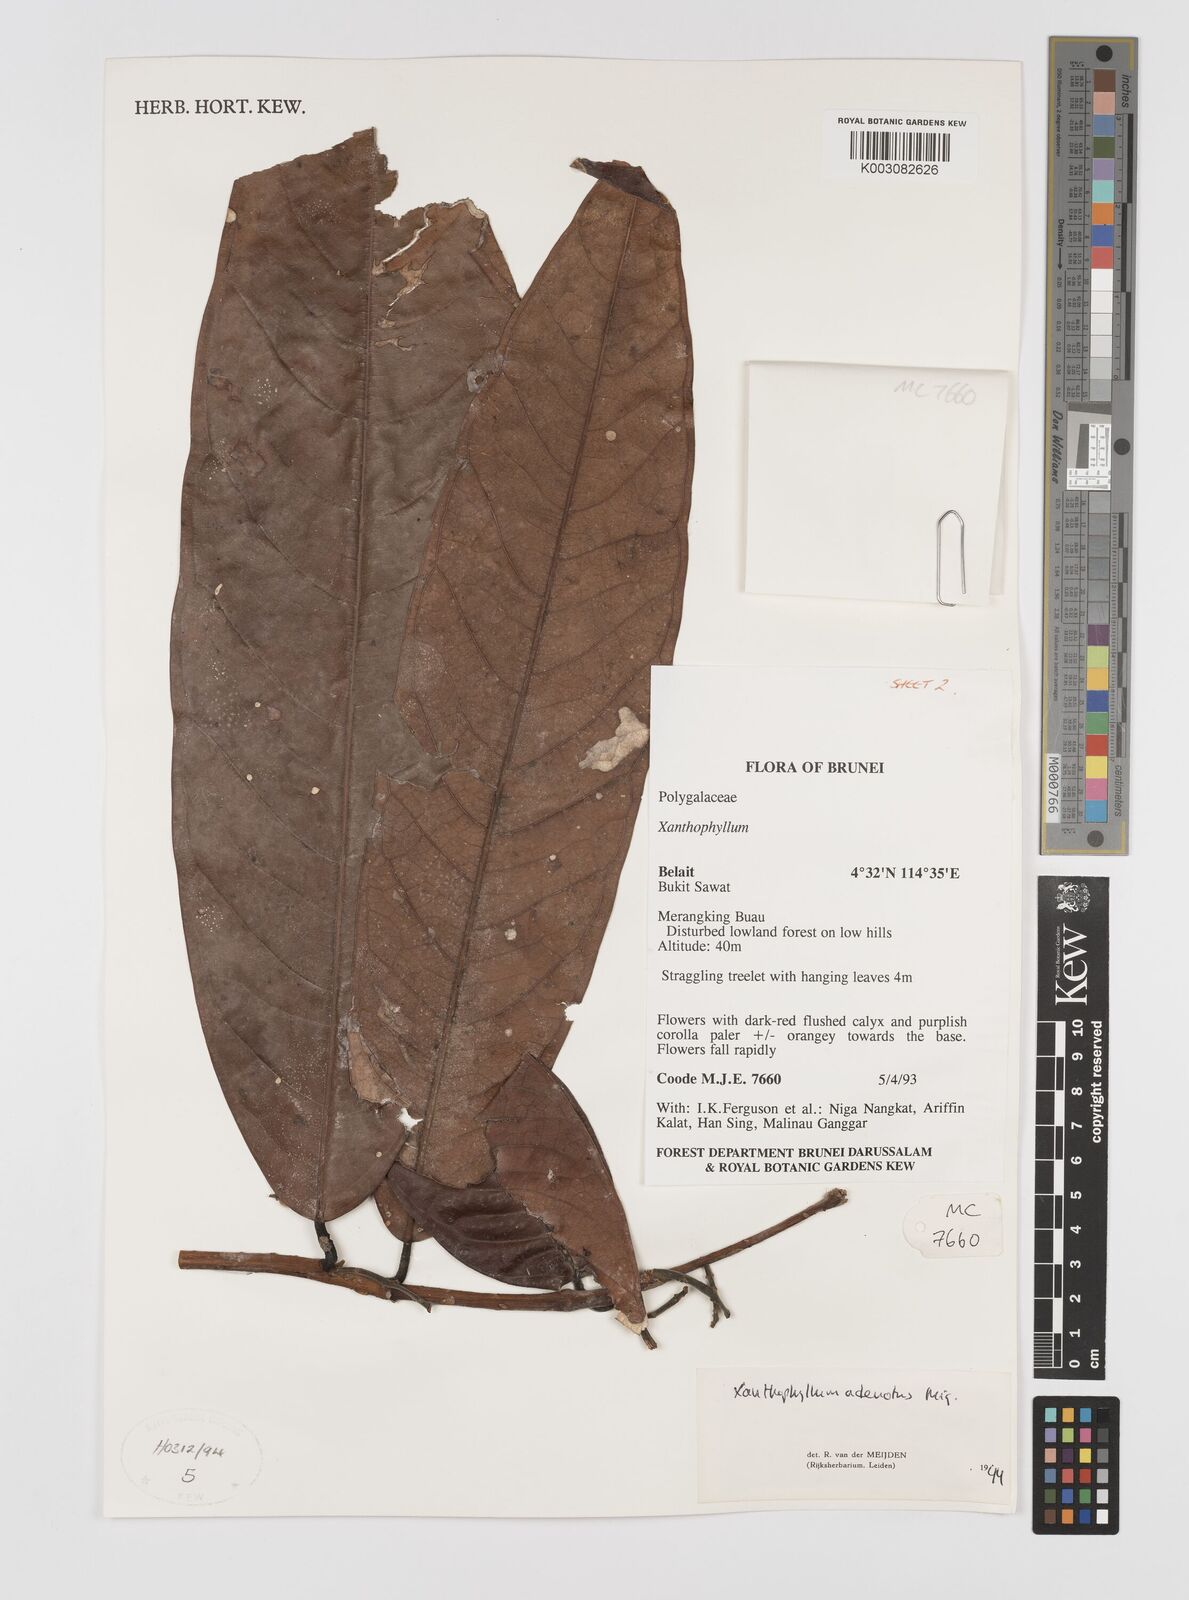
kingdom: Plantae
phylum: Tracheophyta
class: Magnoliopsida
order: Fabales
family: Polygalaceae
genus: Xanthophyllum
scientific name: Xanthophyllum adenotus
